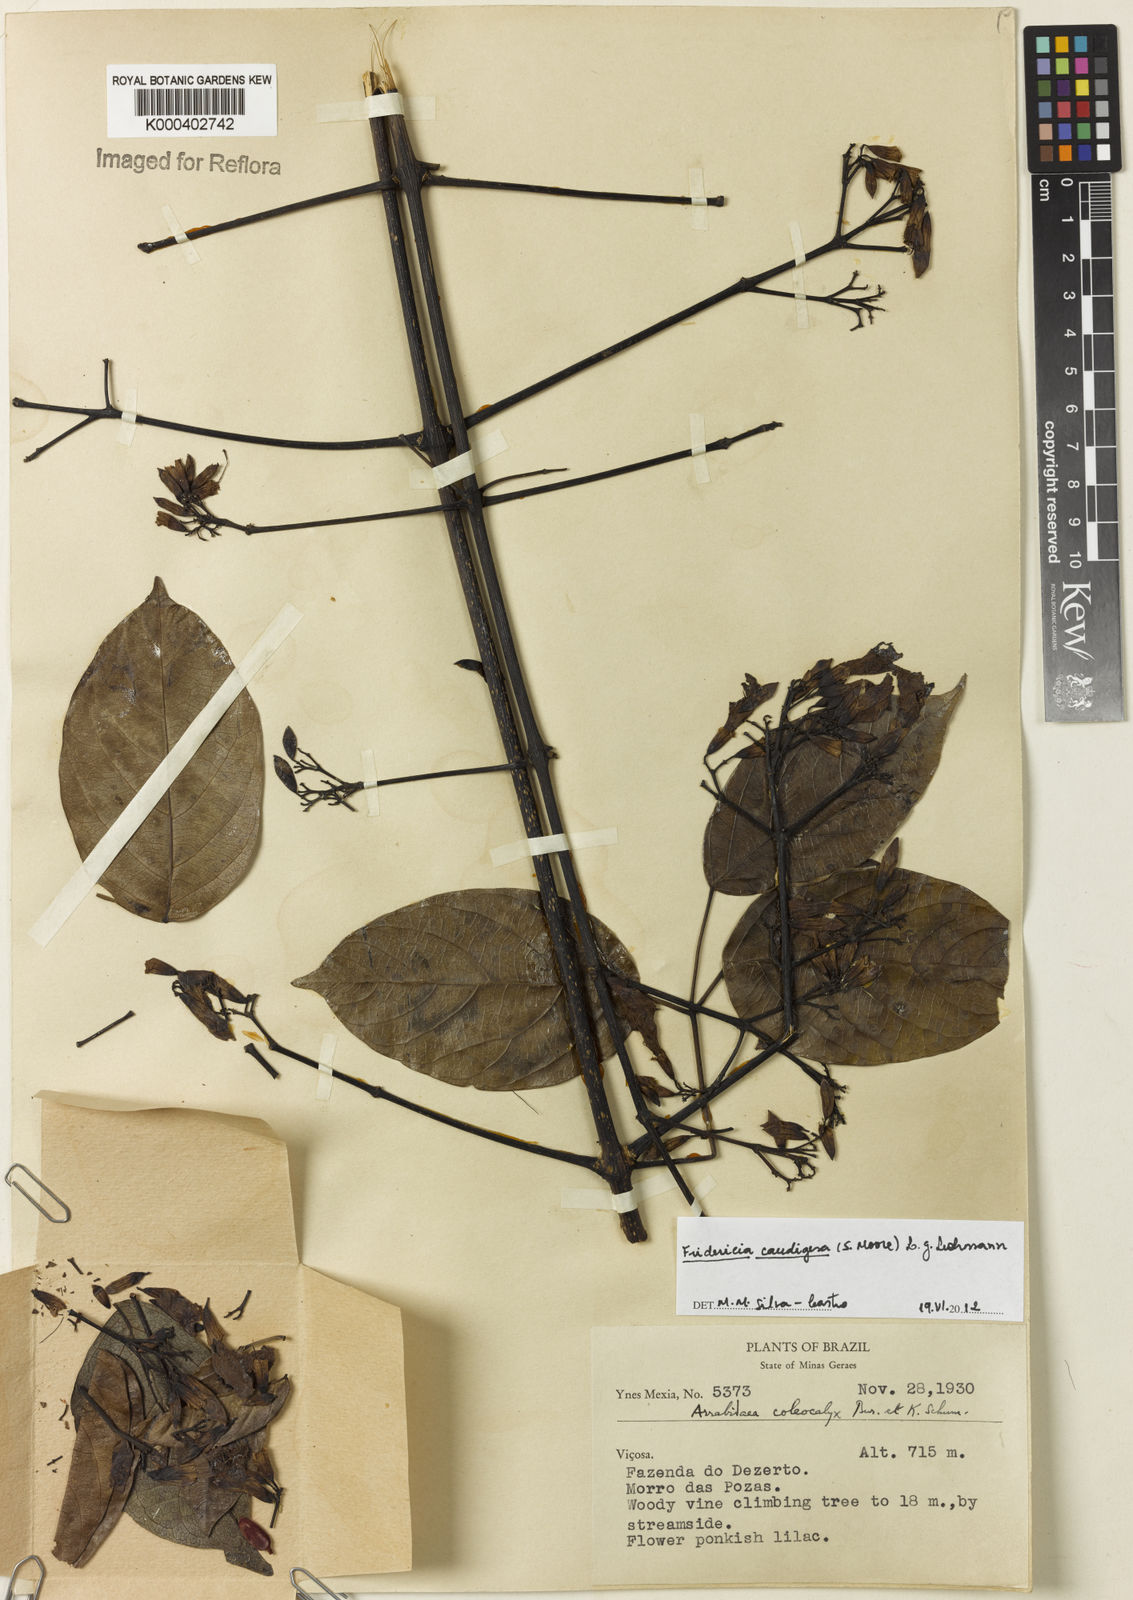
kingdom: Plantae
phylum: Tracheophyta
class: Magnoliopsida
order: Lamiales
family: Bignoniaceae
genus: Fridericia
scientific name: Fridericia caudigera
